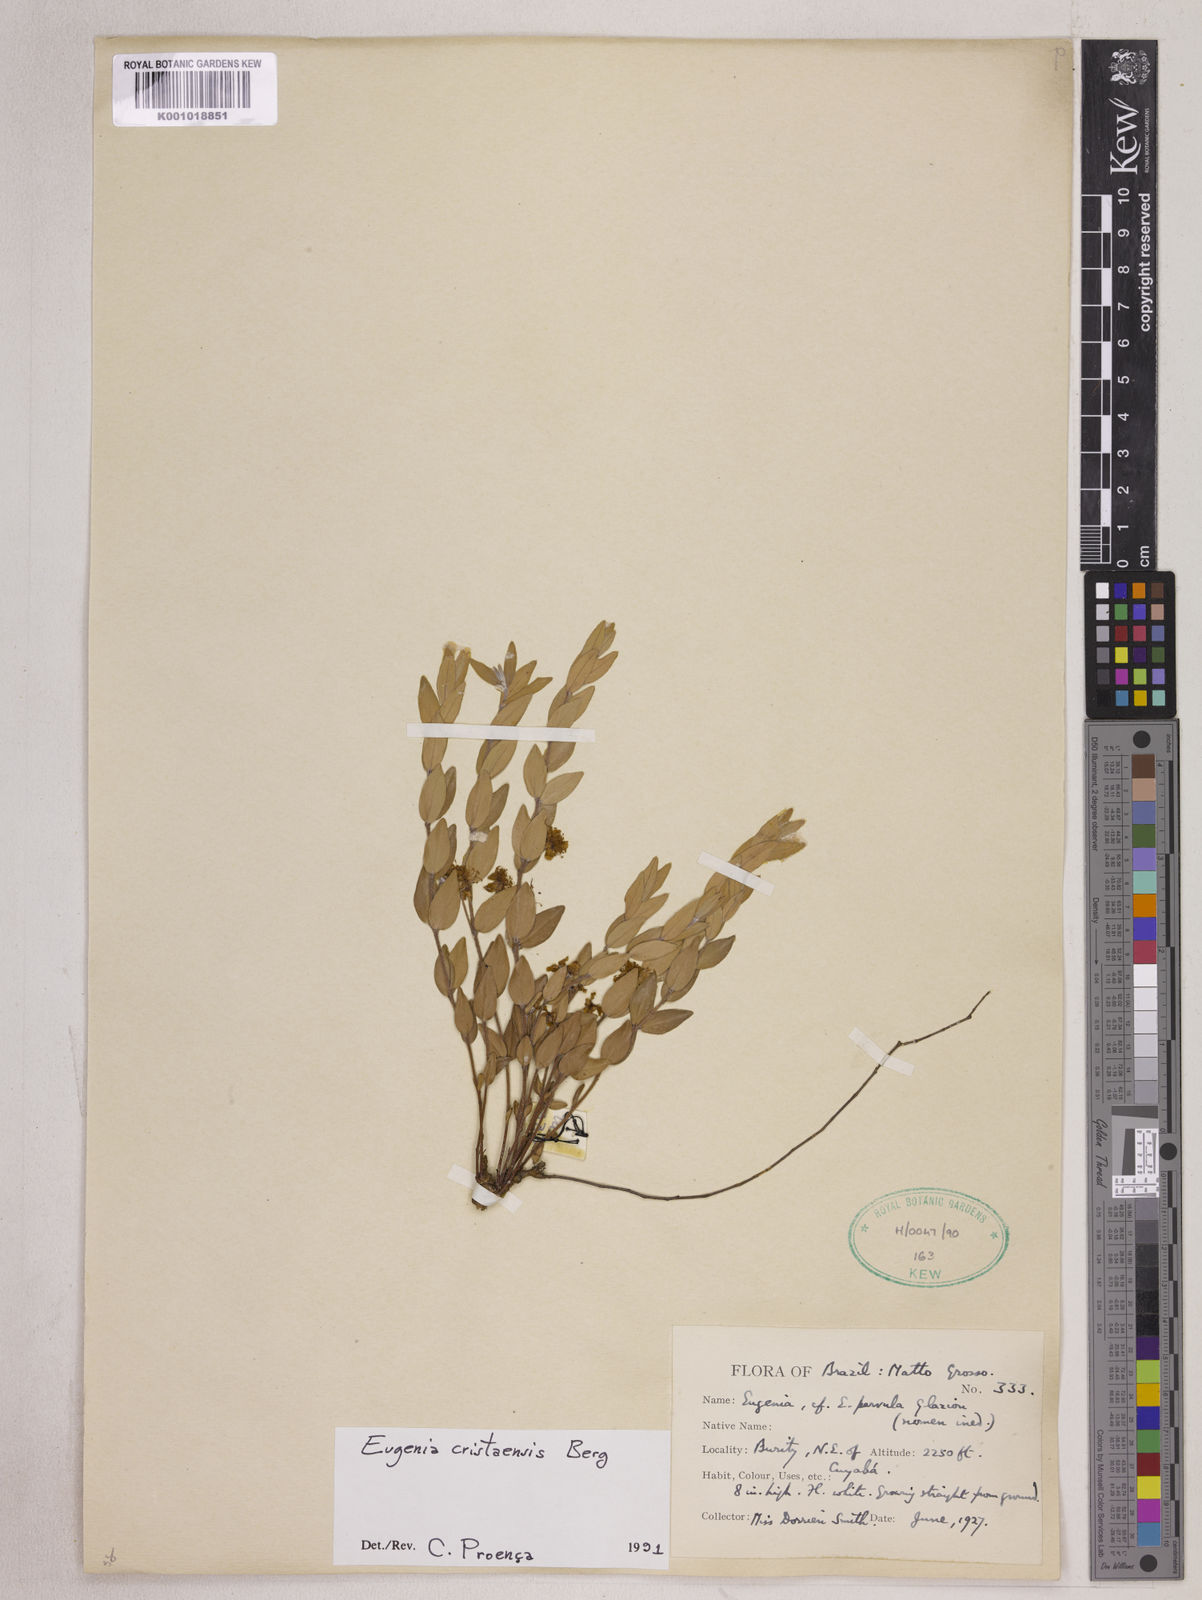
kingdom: Plantae
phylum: Tracheophyta
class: Magnoliopsida
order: Myrtales
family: Myrtaceae
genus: Eugenia
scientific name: Eugenia cristaensis
